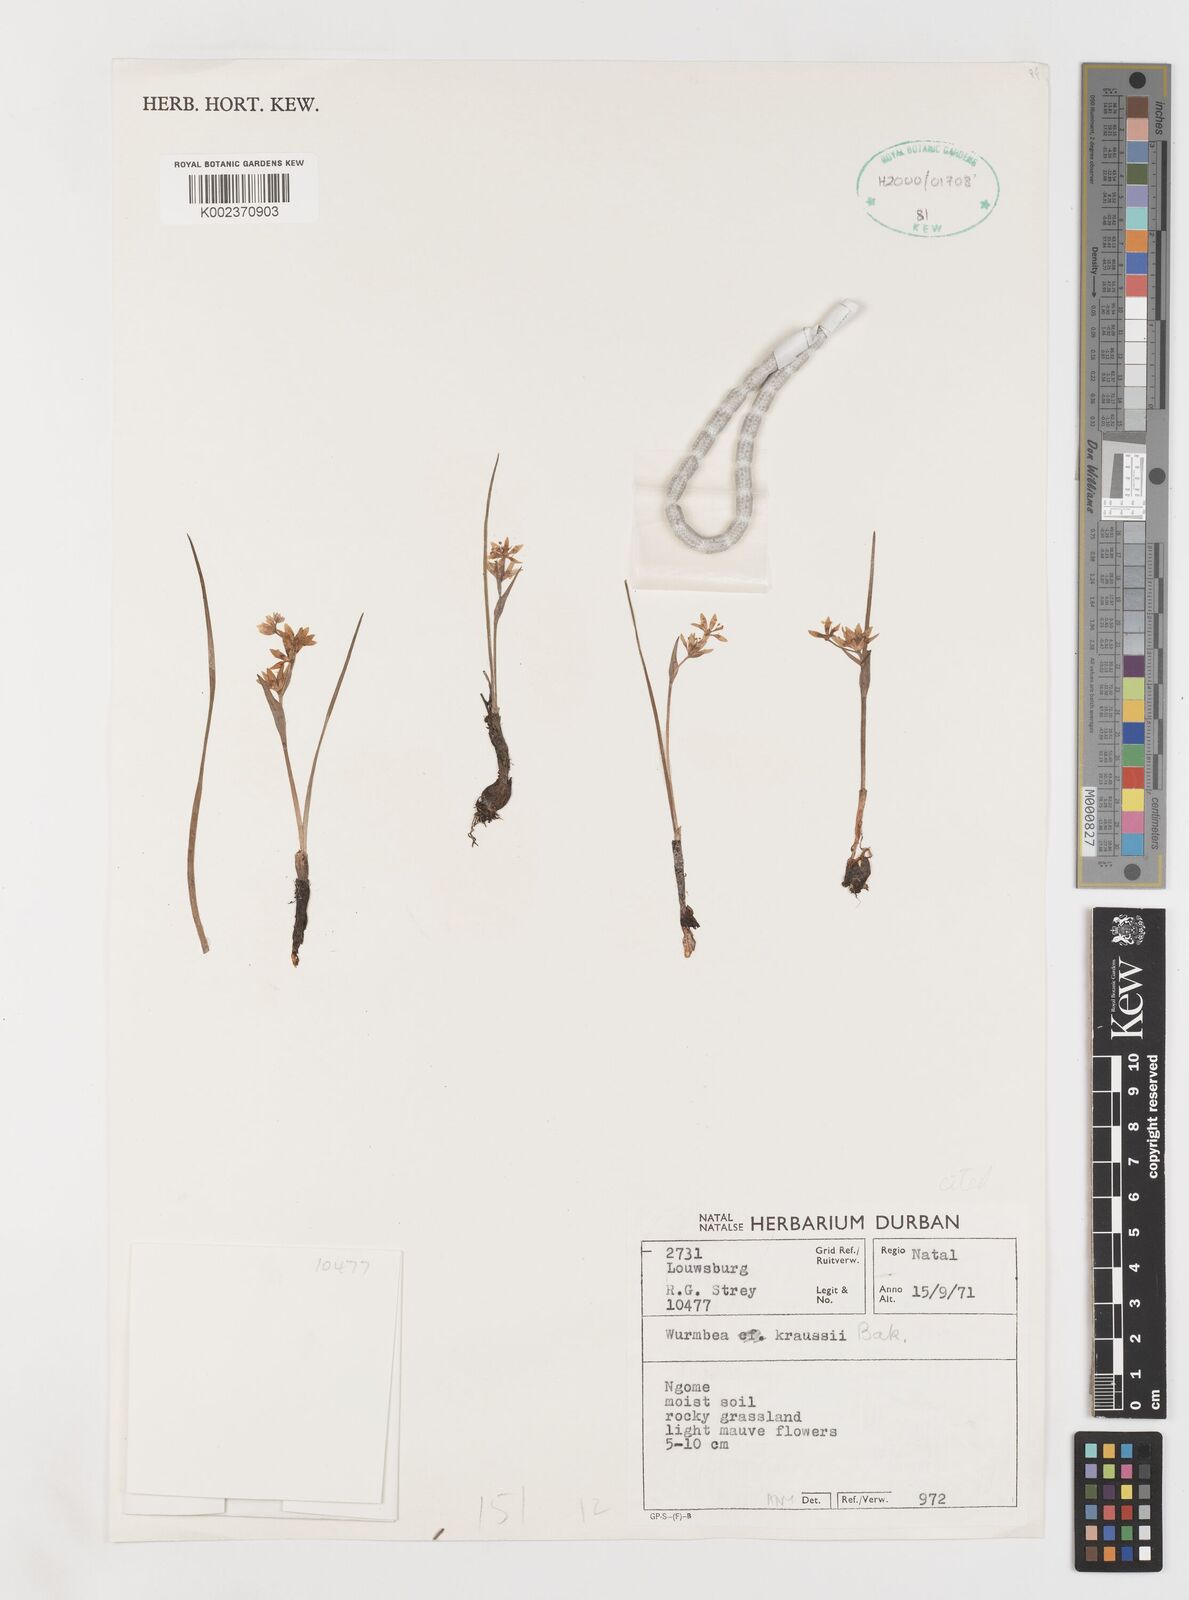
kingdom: Plantae
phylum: Tracheophyta
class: Liliopsida
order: Liliales
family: Colchicaceae
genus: Wurmbea
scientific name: Wurmbea kraussii
